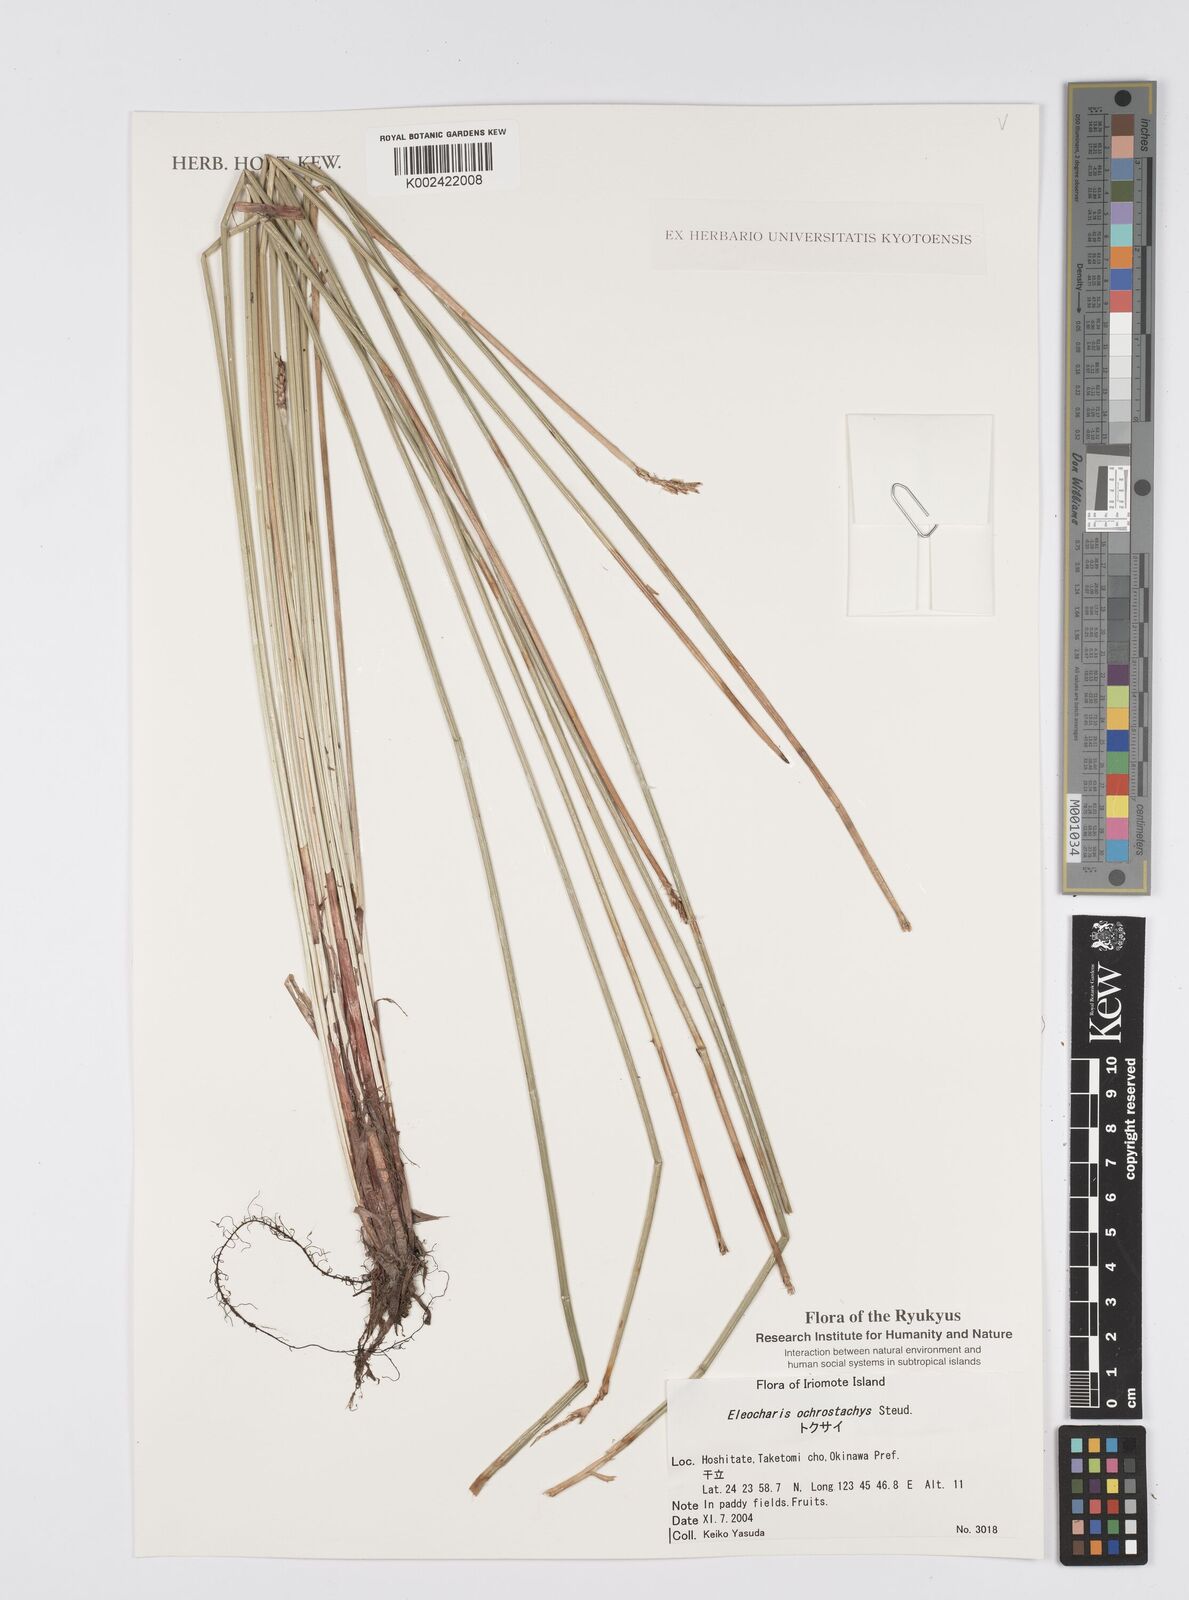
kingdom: Plantae
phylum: Tracheophyta
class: Liliopsida
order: Poales
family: Cyperaceae
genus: Eleocharis
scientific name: Eleocharis ochrostachys
